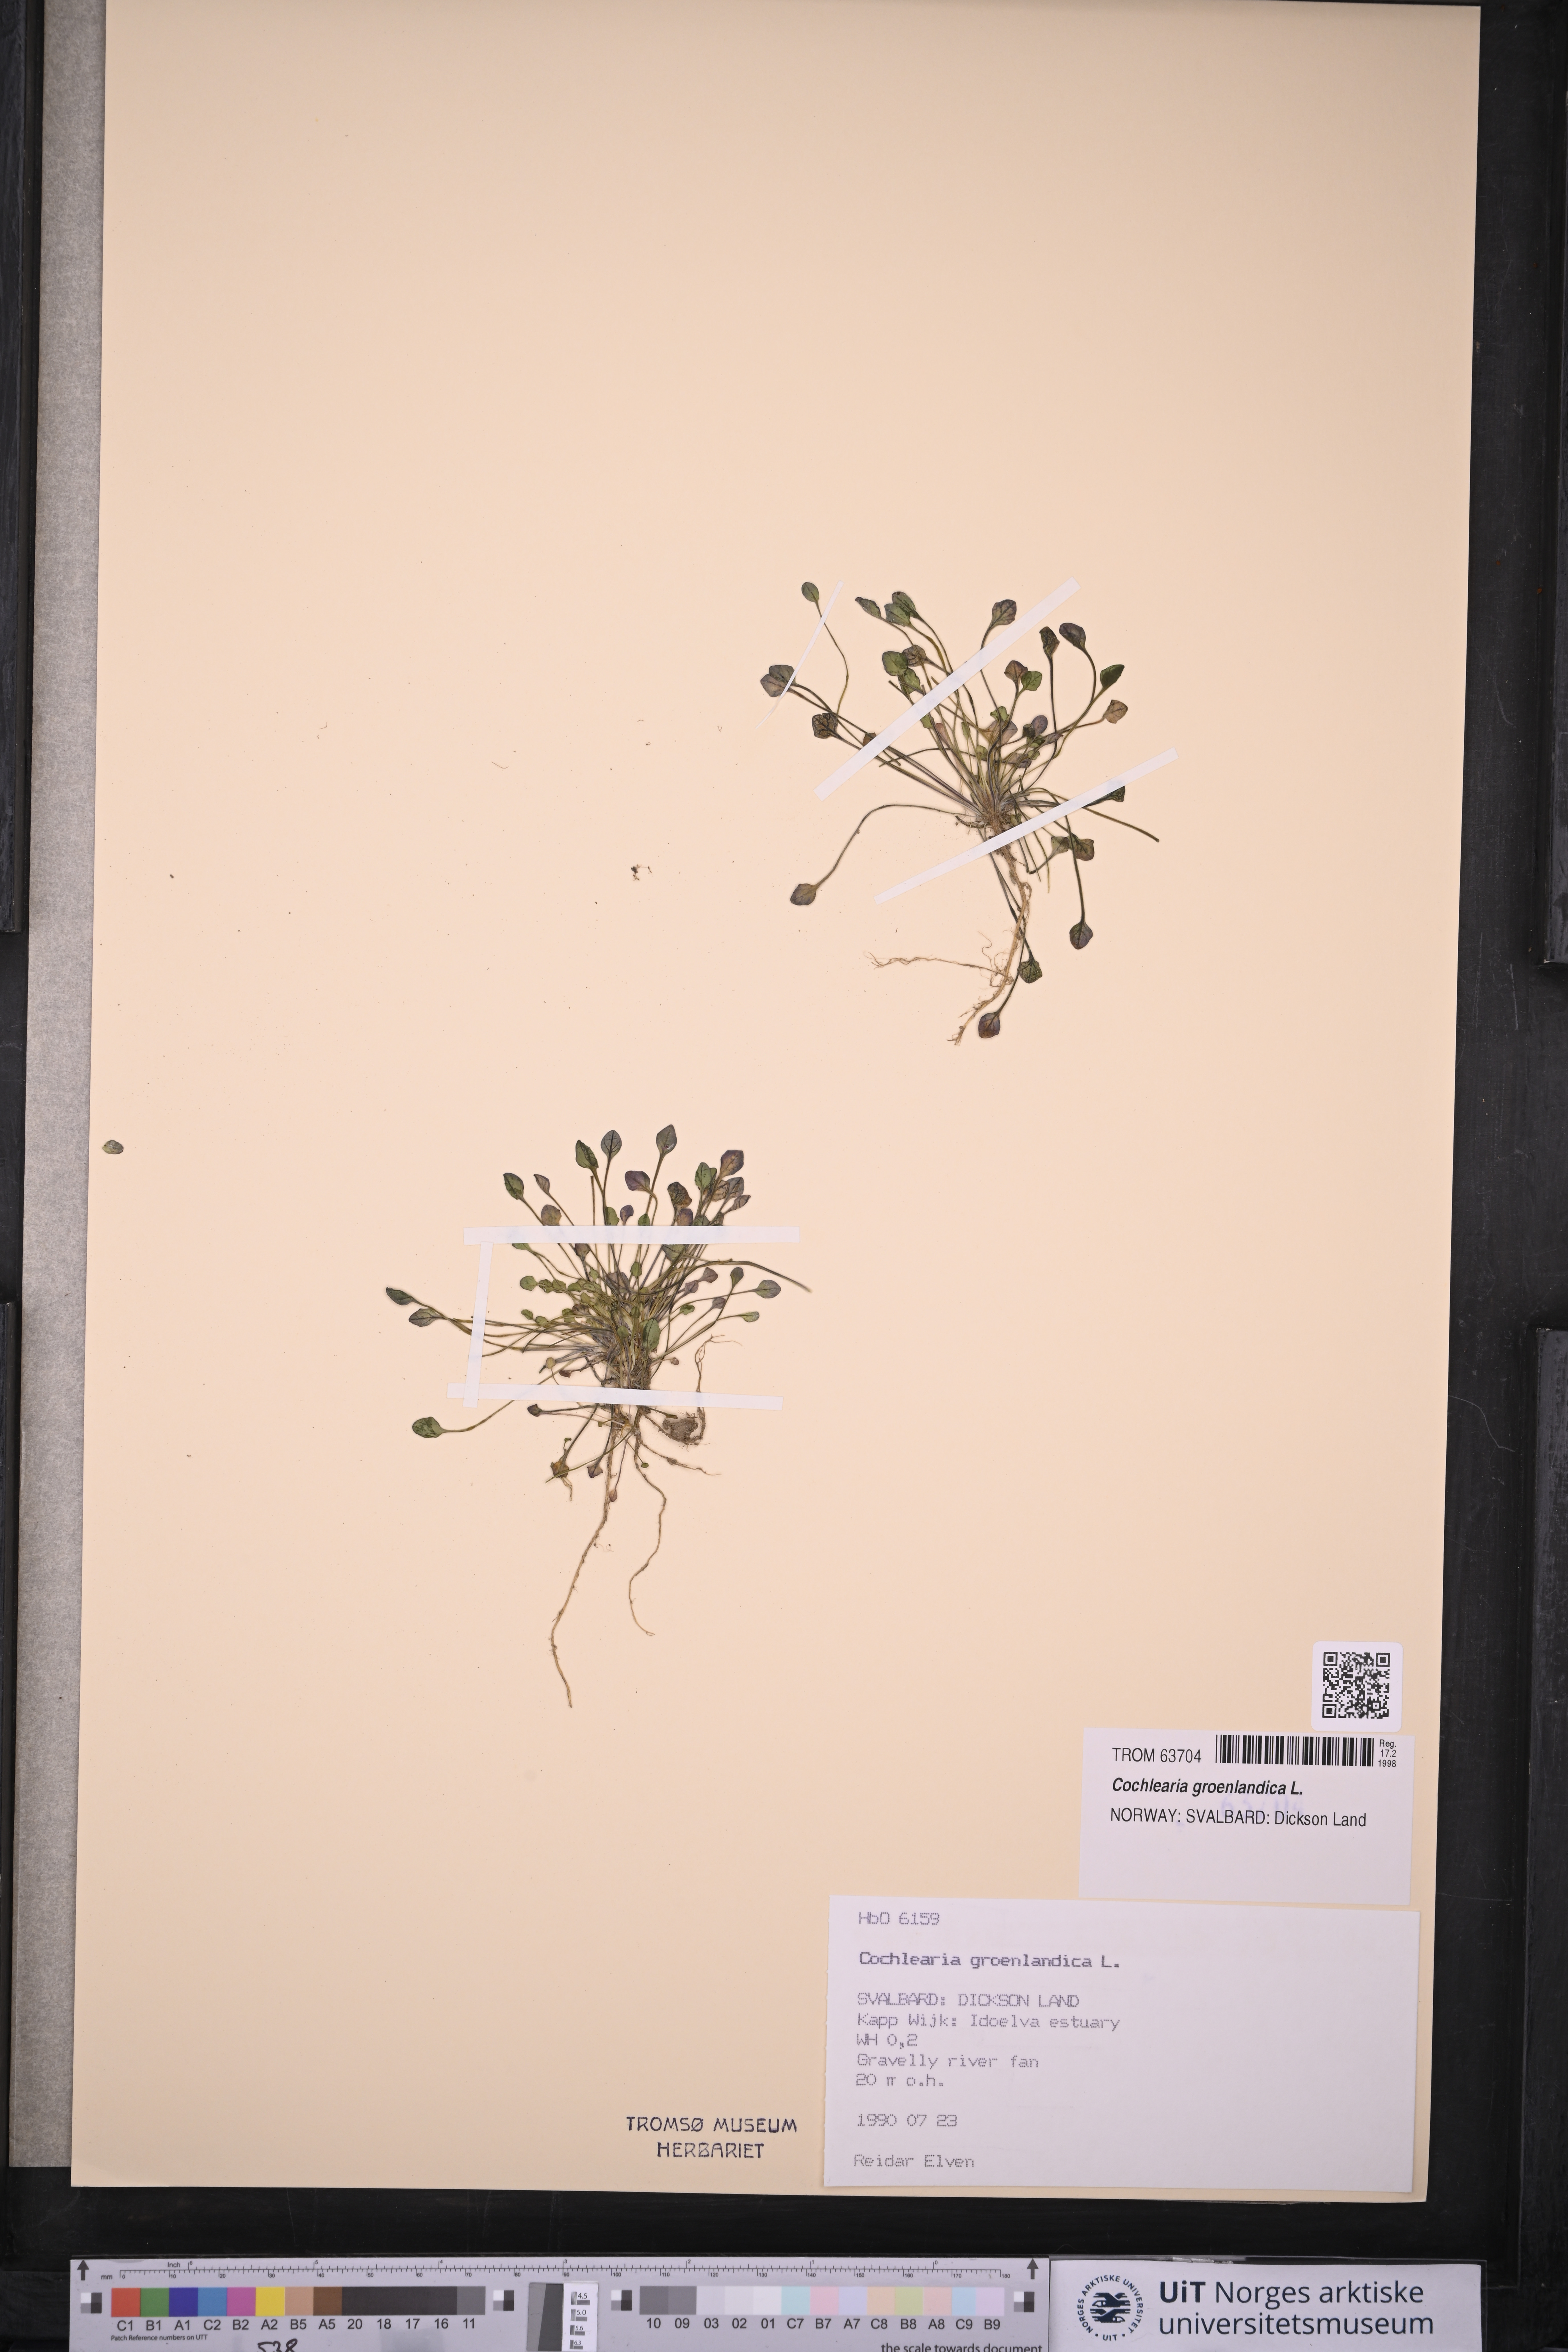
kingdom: Plantae
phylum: Tracheophyta
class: Magnoliopsida
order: Brassicales
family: Brassicaceae
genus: Cochlearia
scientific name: Cochlearia groenlandica
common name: Danish scurvygrass
